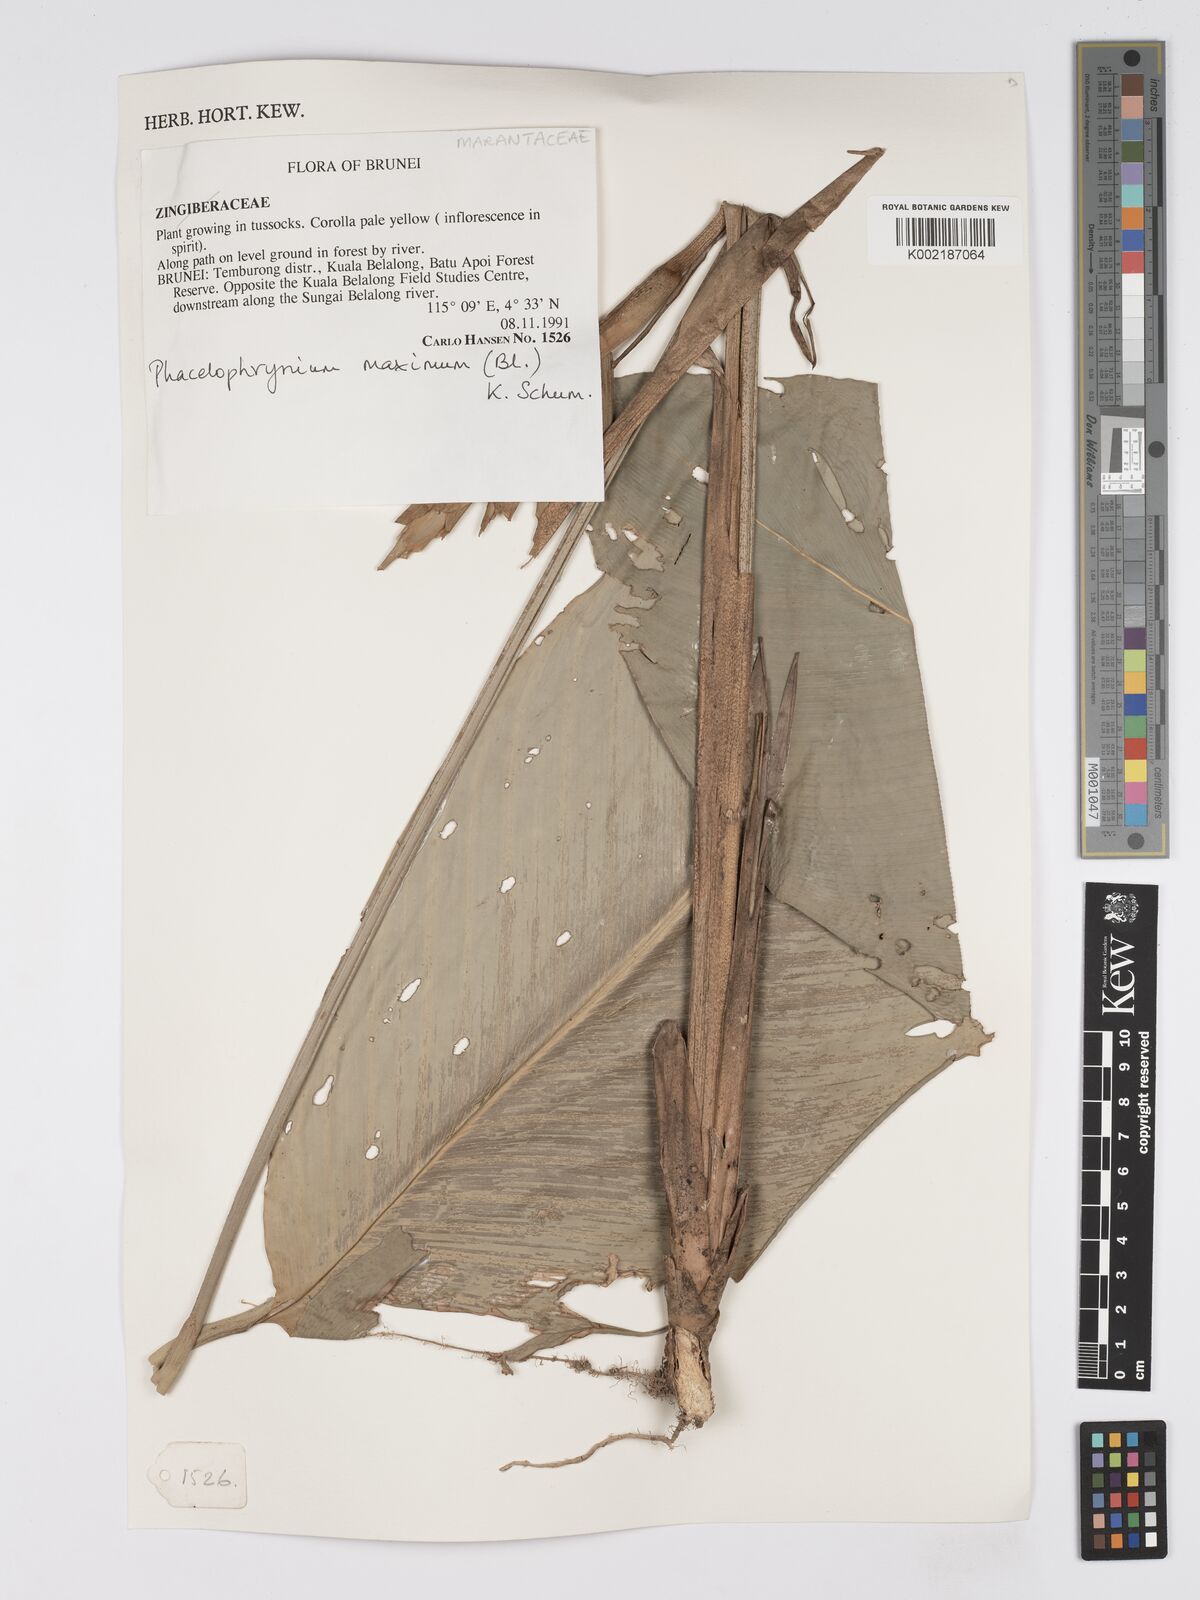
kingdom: Plantae
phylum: Tracheophyta
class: Liliopsida
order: Zingiberales
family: Marantaceae
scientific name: Marantaceae
